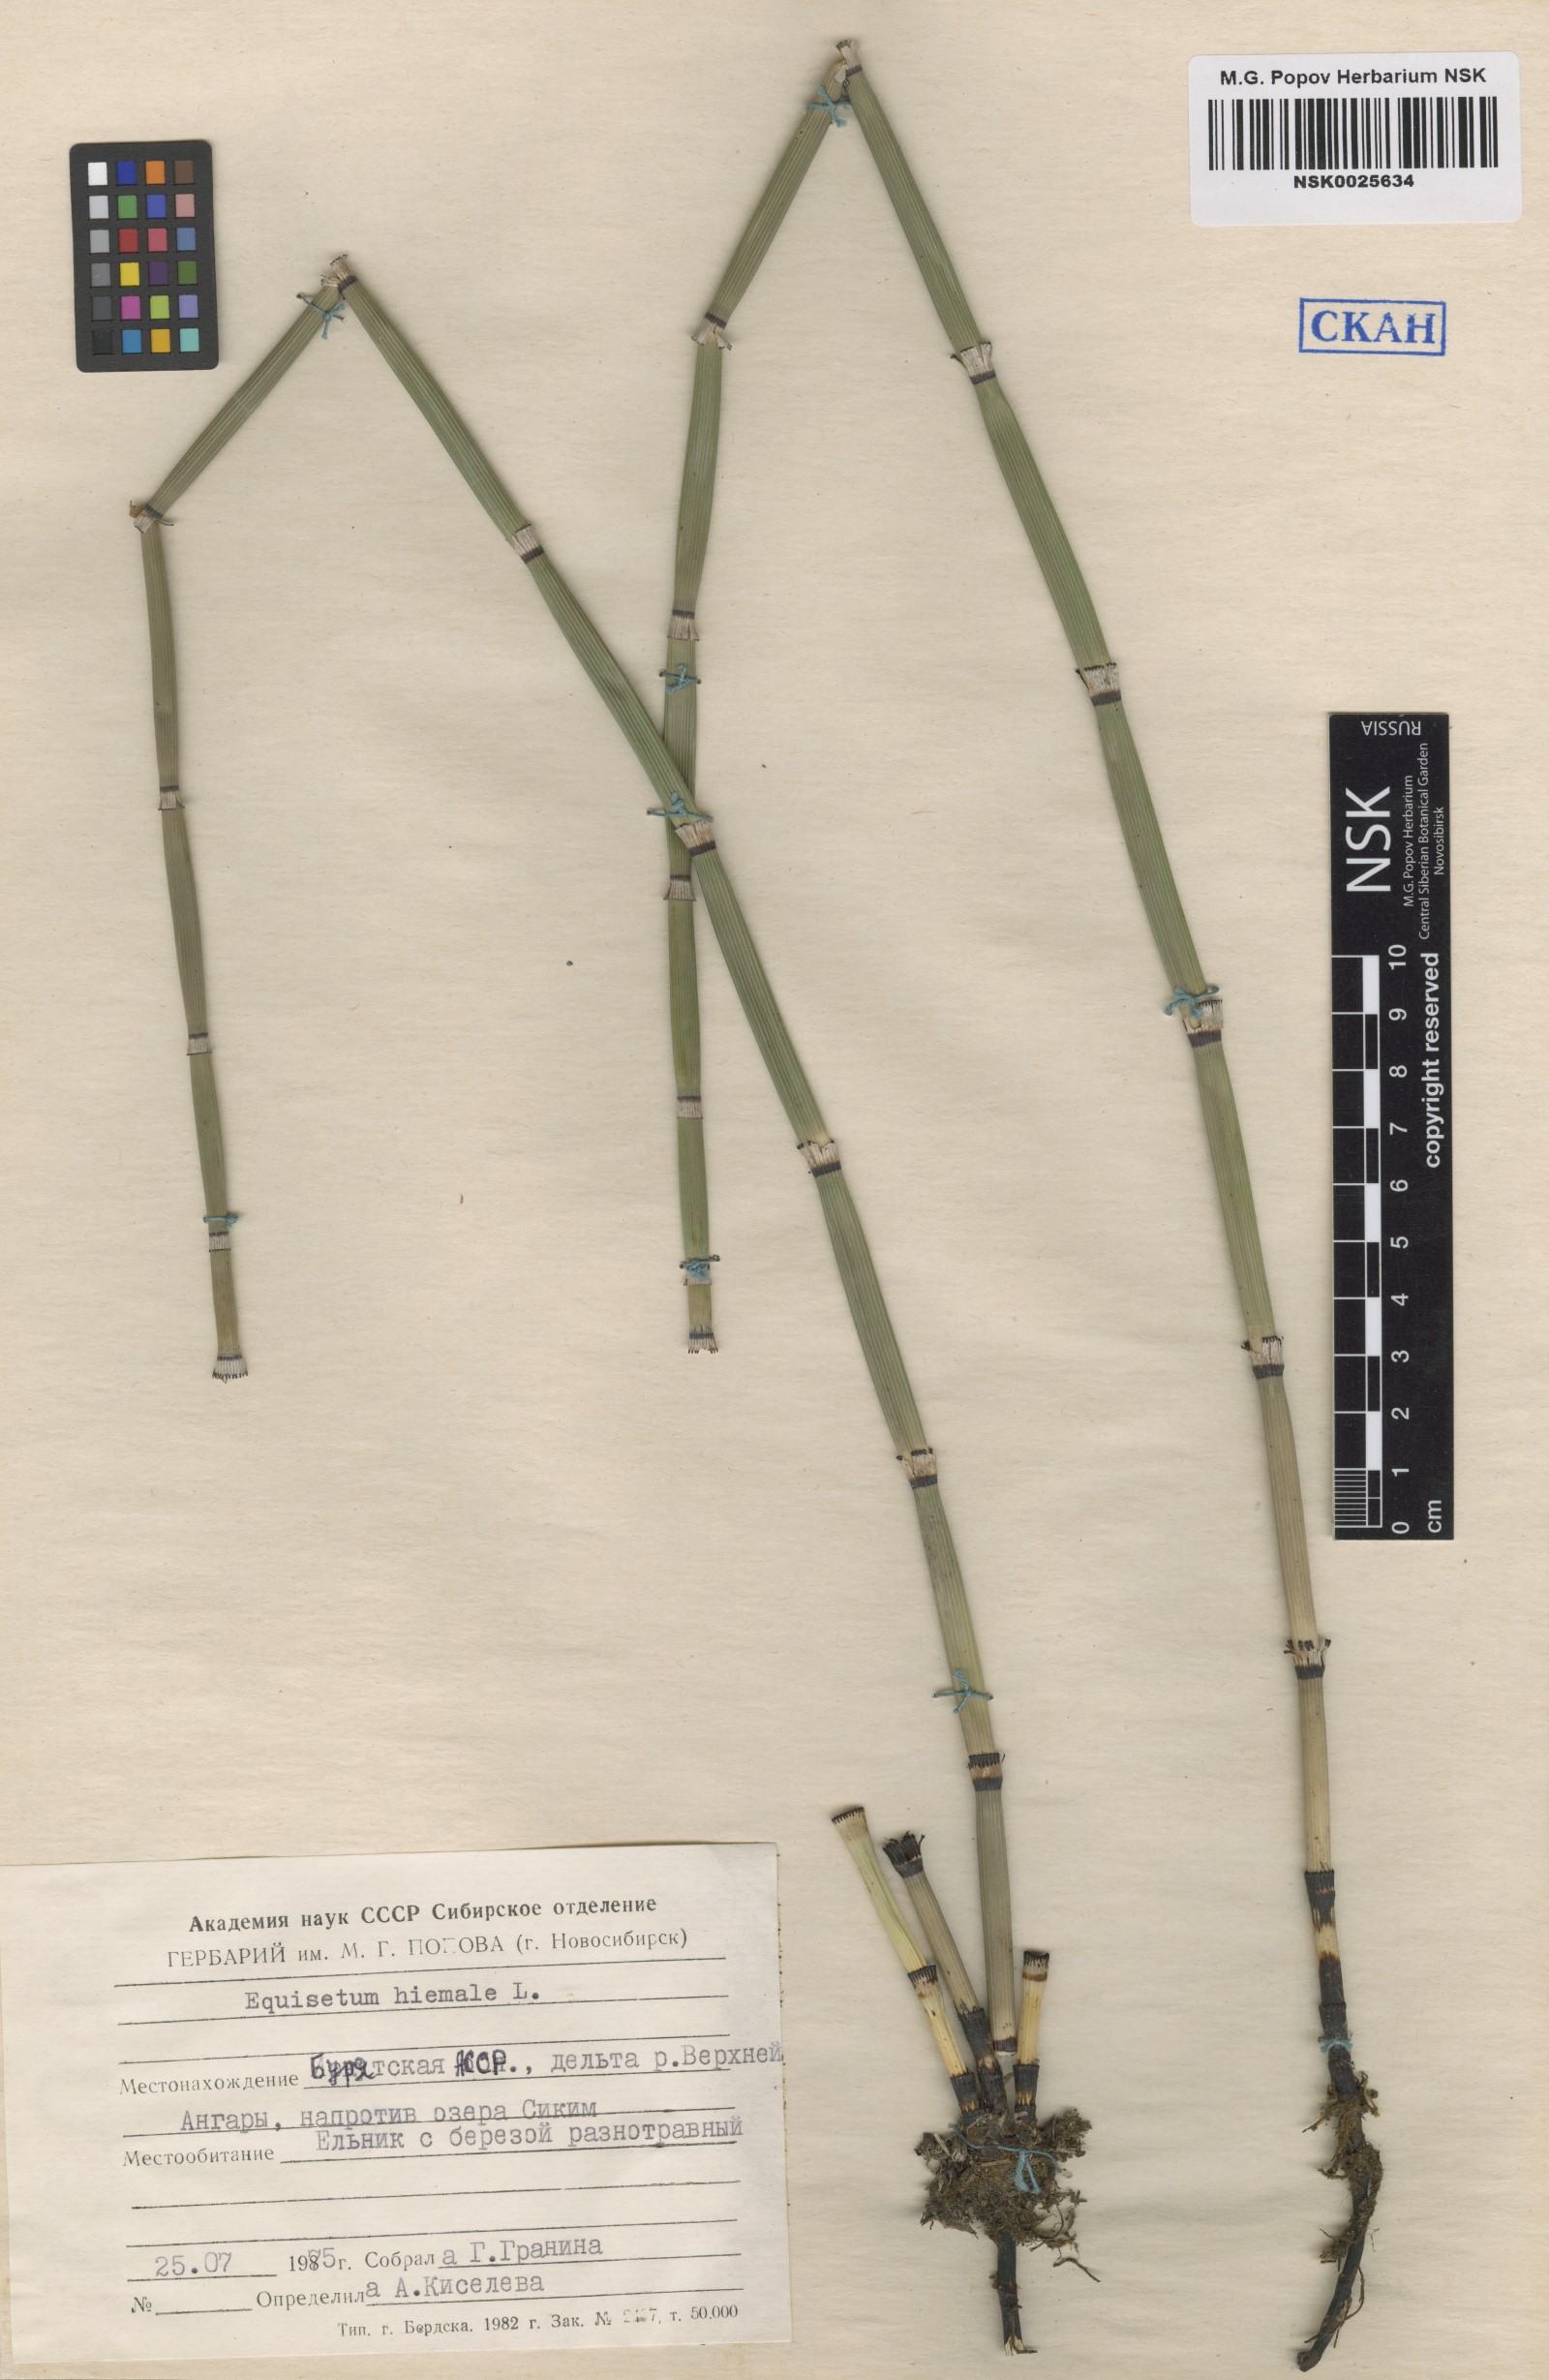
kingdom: Plantae
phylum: Tracheophyta
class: Polypodiopsida
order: Equisetales
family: Equisetaceae
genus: Equisetum
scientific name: Equisetum hyemale
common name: Rough horsetail
